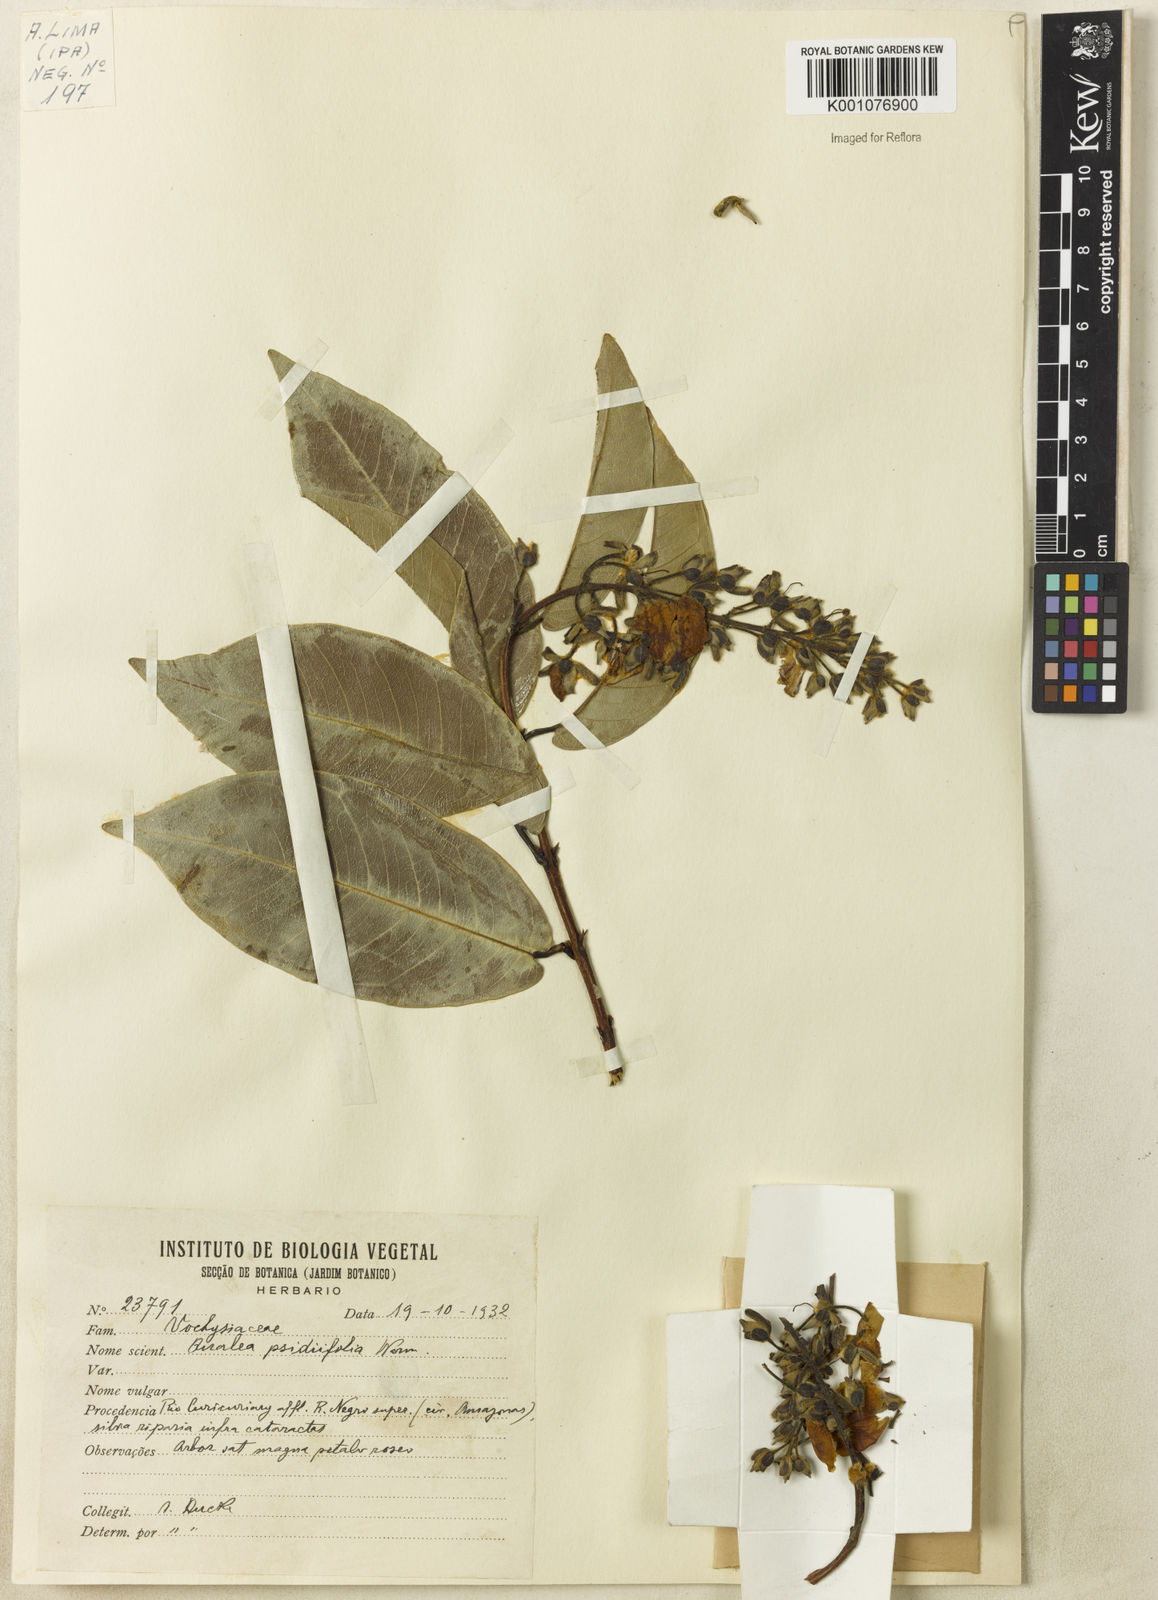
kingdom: Plantae
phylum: Tracheophyta
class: Magnoliopsida
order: Myrtales
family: Vochysiaceae
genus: Qualea
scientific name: Qualea psidiifolia
